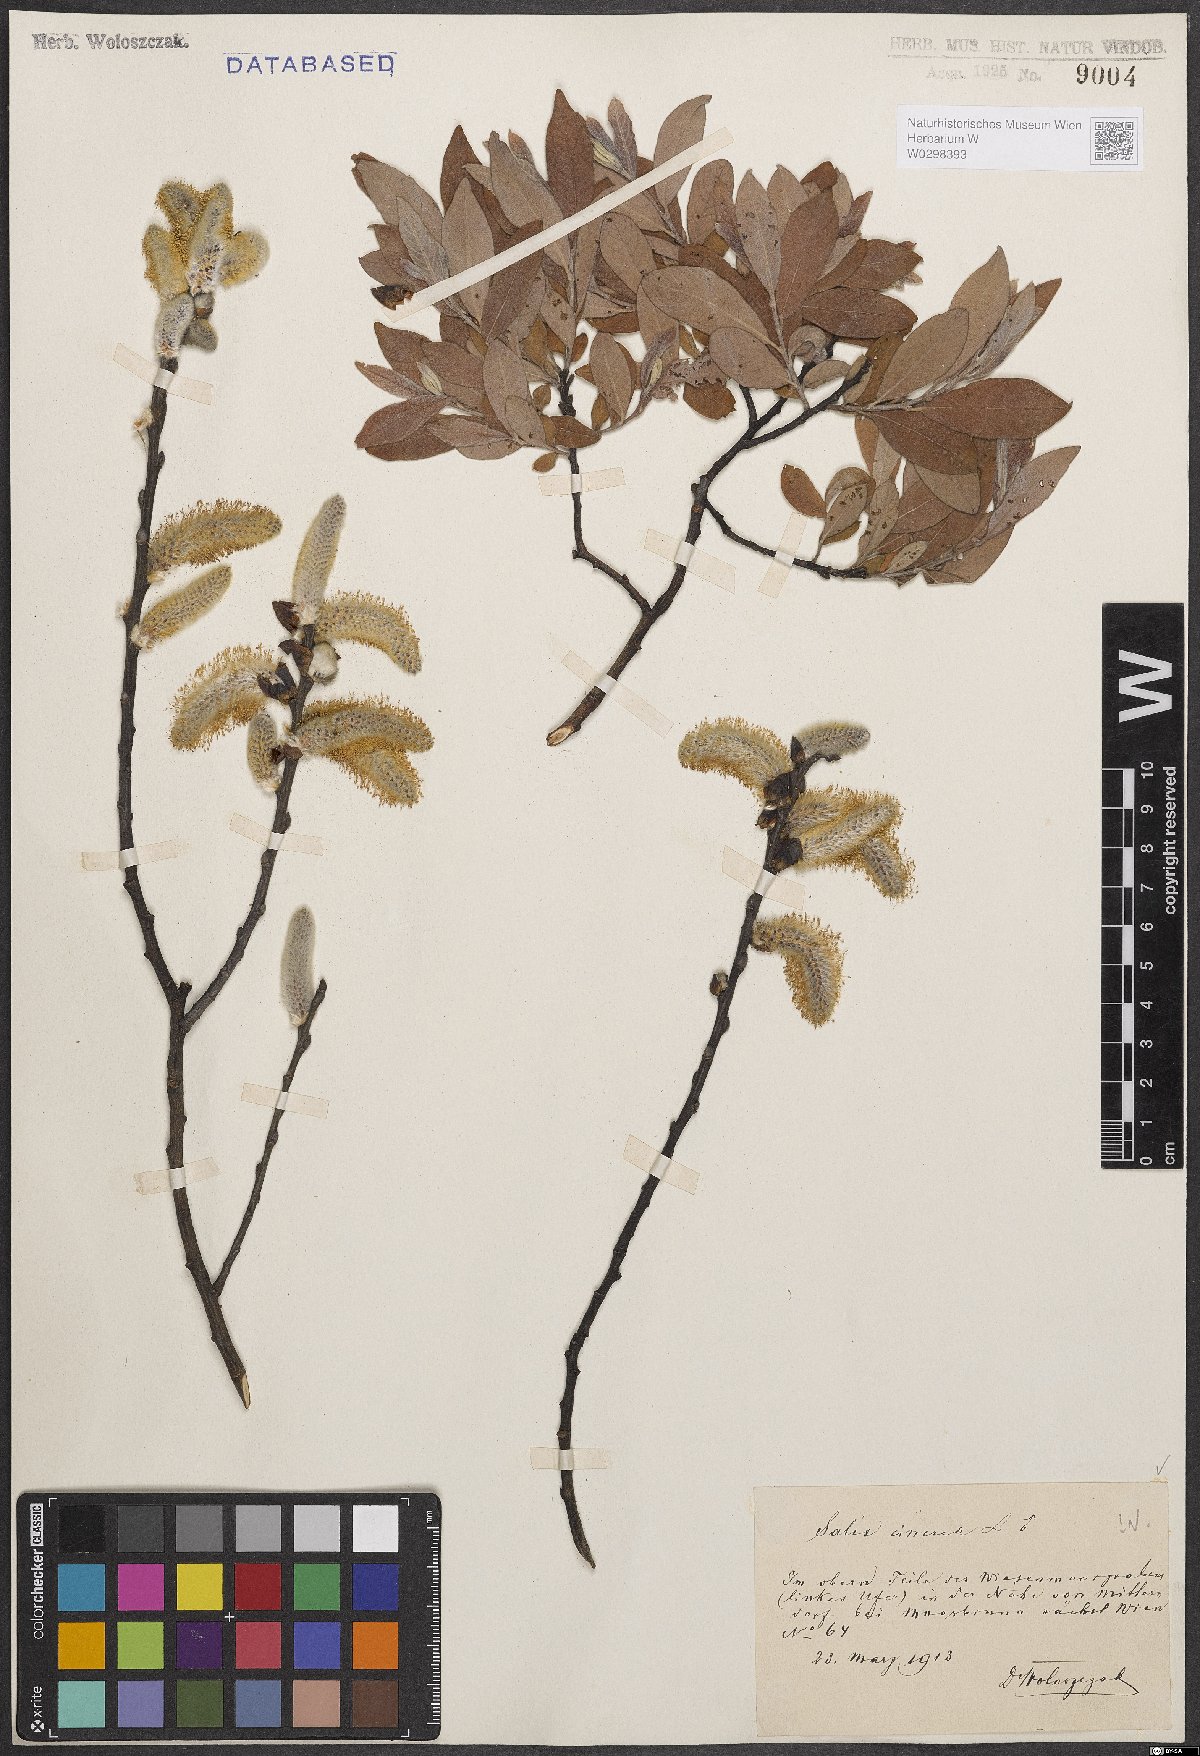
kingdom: Plantae
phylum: Tracheophyta
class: Magnoliopsida
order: Malpighiales
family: Salicaceae
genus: Salix
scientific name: Salix cinerea
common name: Common sallow
